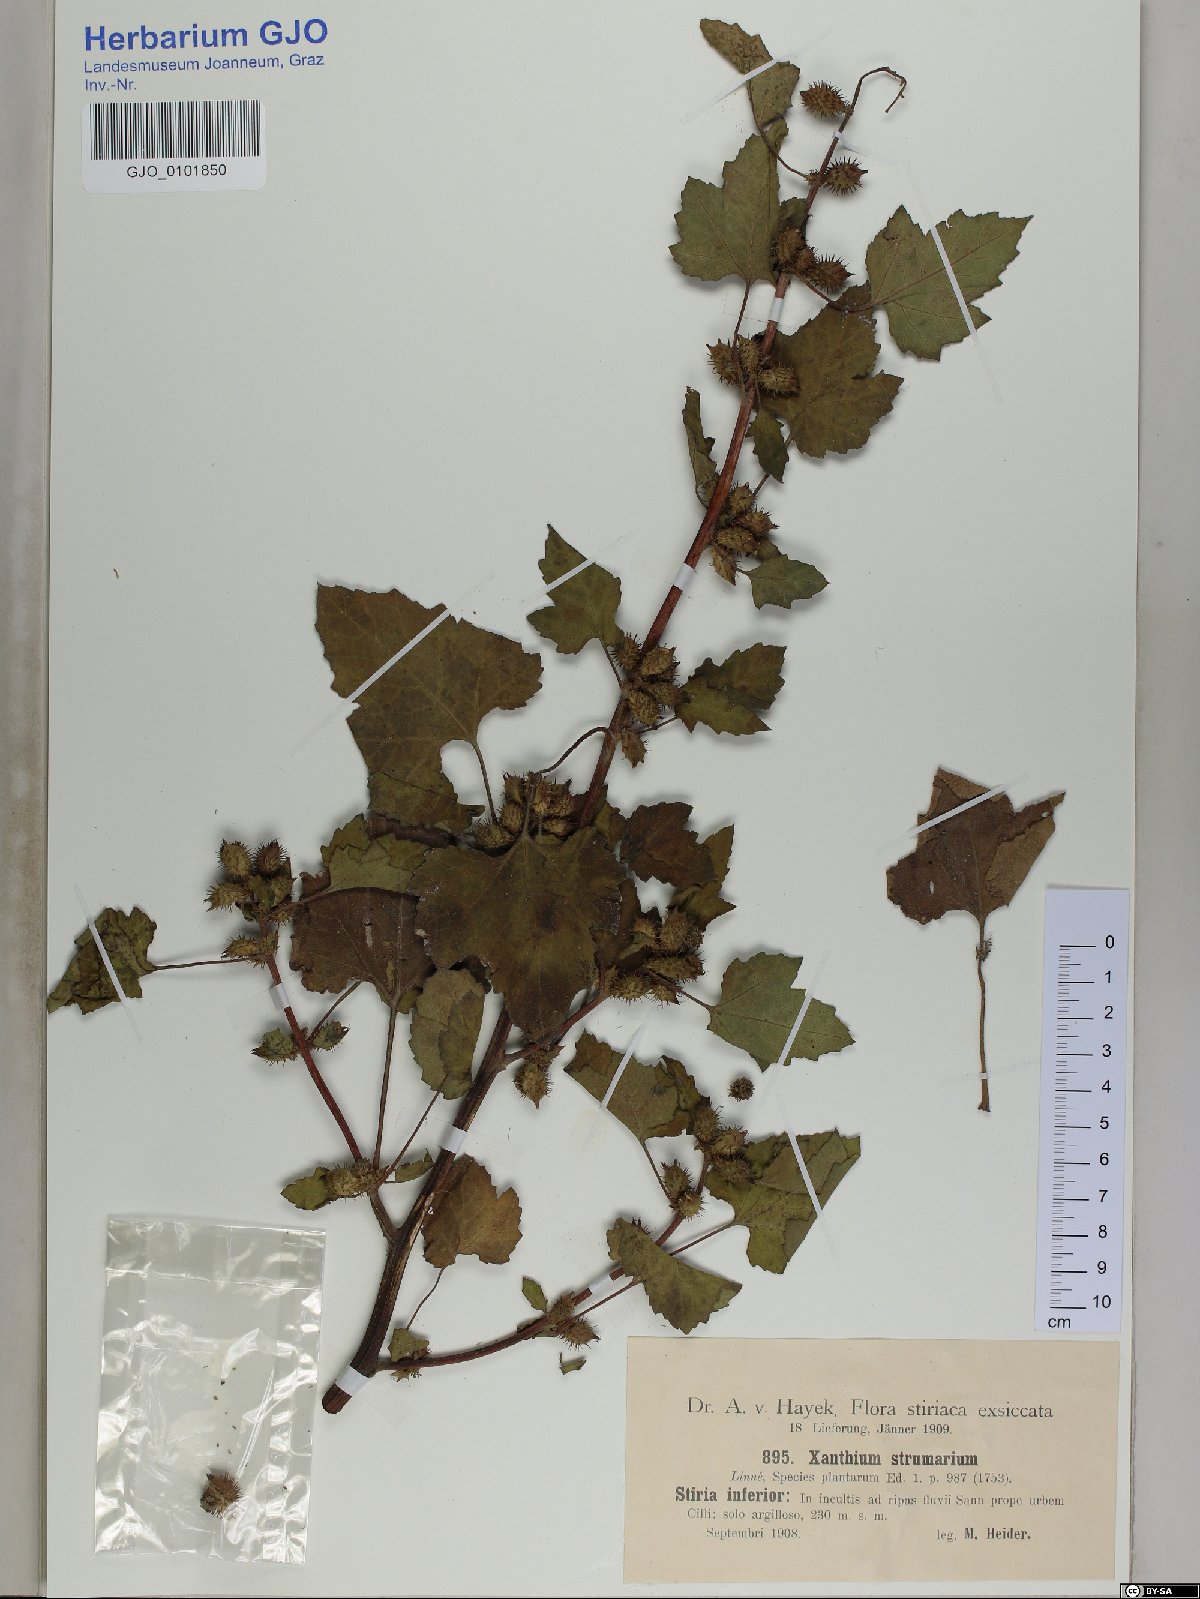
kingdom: Plantae
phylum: Tracheophyta
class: Magnoliopsida
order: Asterales
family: Asteraceae
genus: Xanthium
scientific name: Xanthium strumarium
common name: Rough cocklebur
